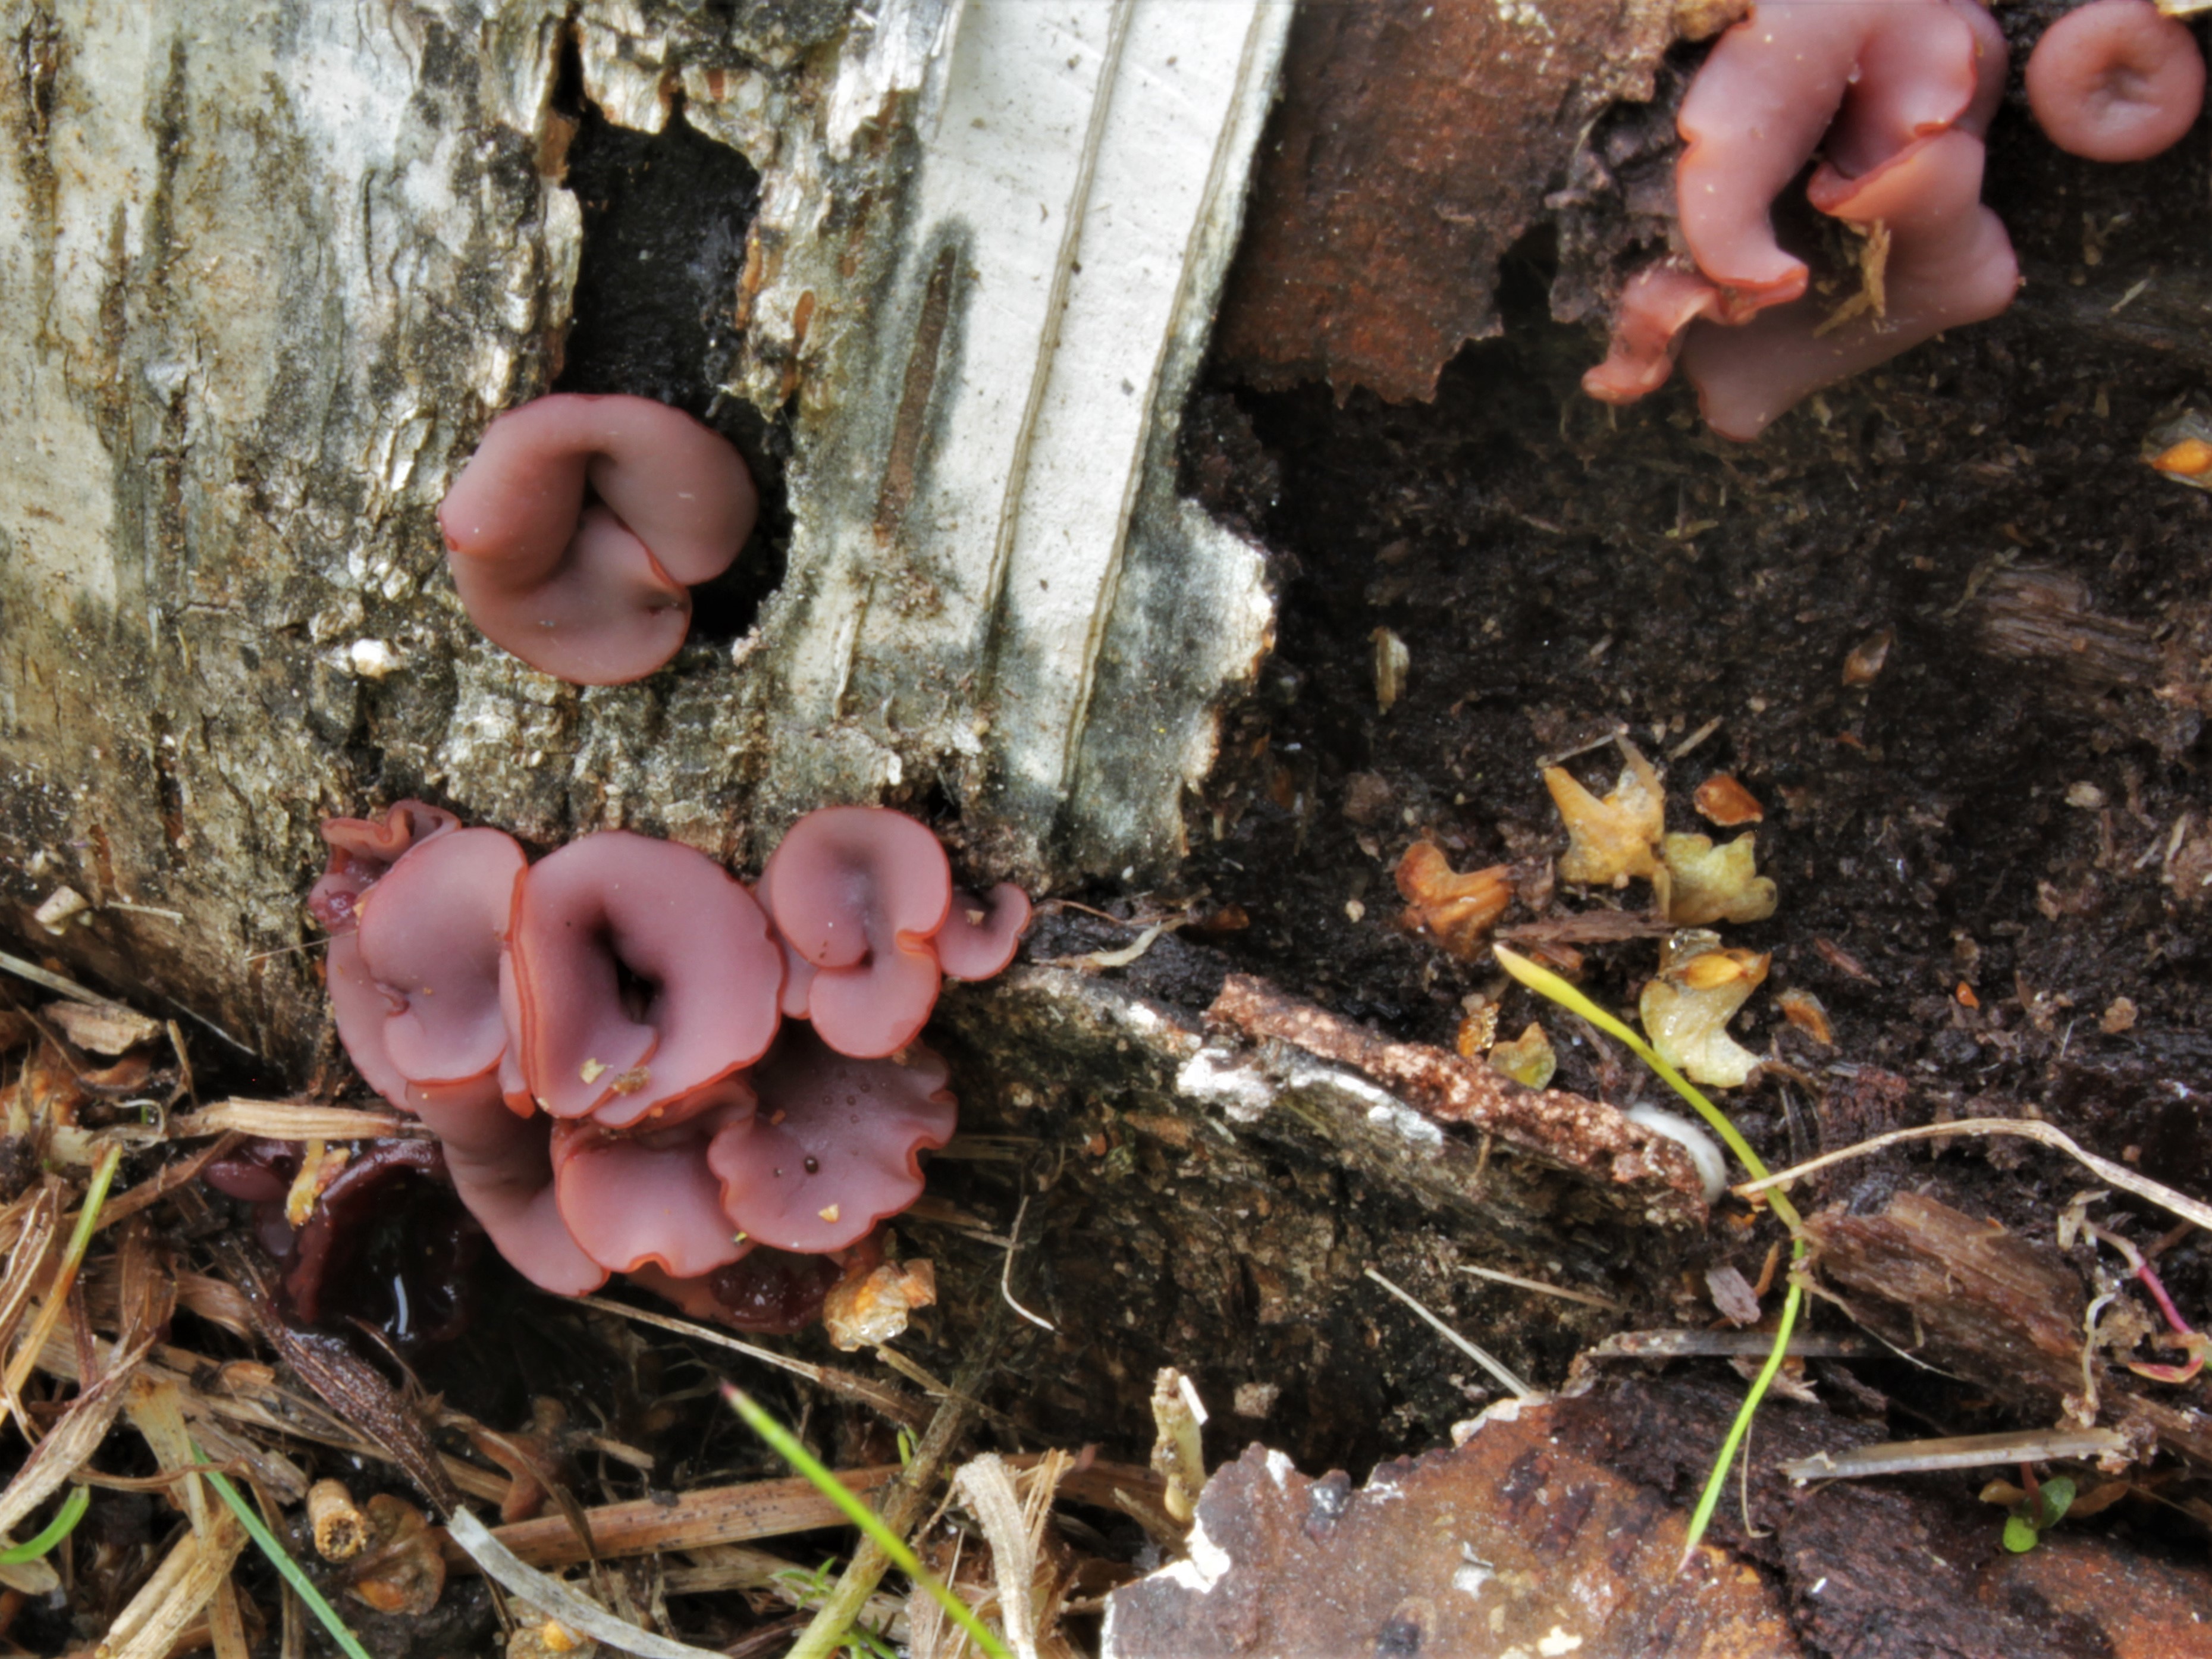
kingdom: Fungi
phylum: Ascomycota
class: Leotiomycetes
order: Helotiales
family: Gelatinodiscaceae
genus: Ascocoryne
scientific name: Ascocoryne cylichnium
